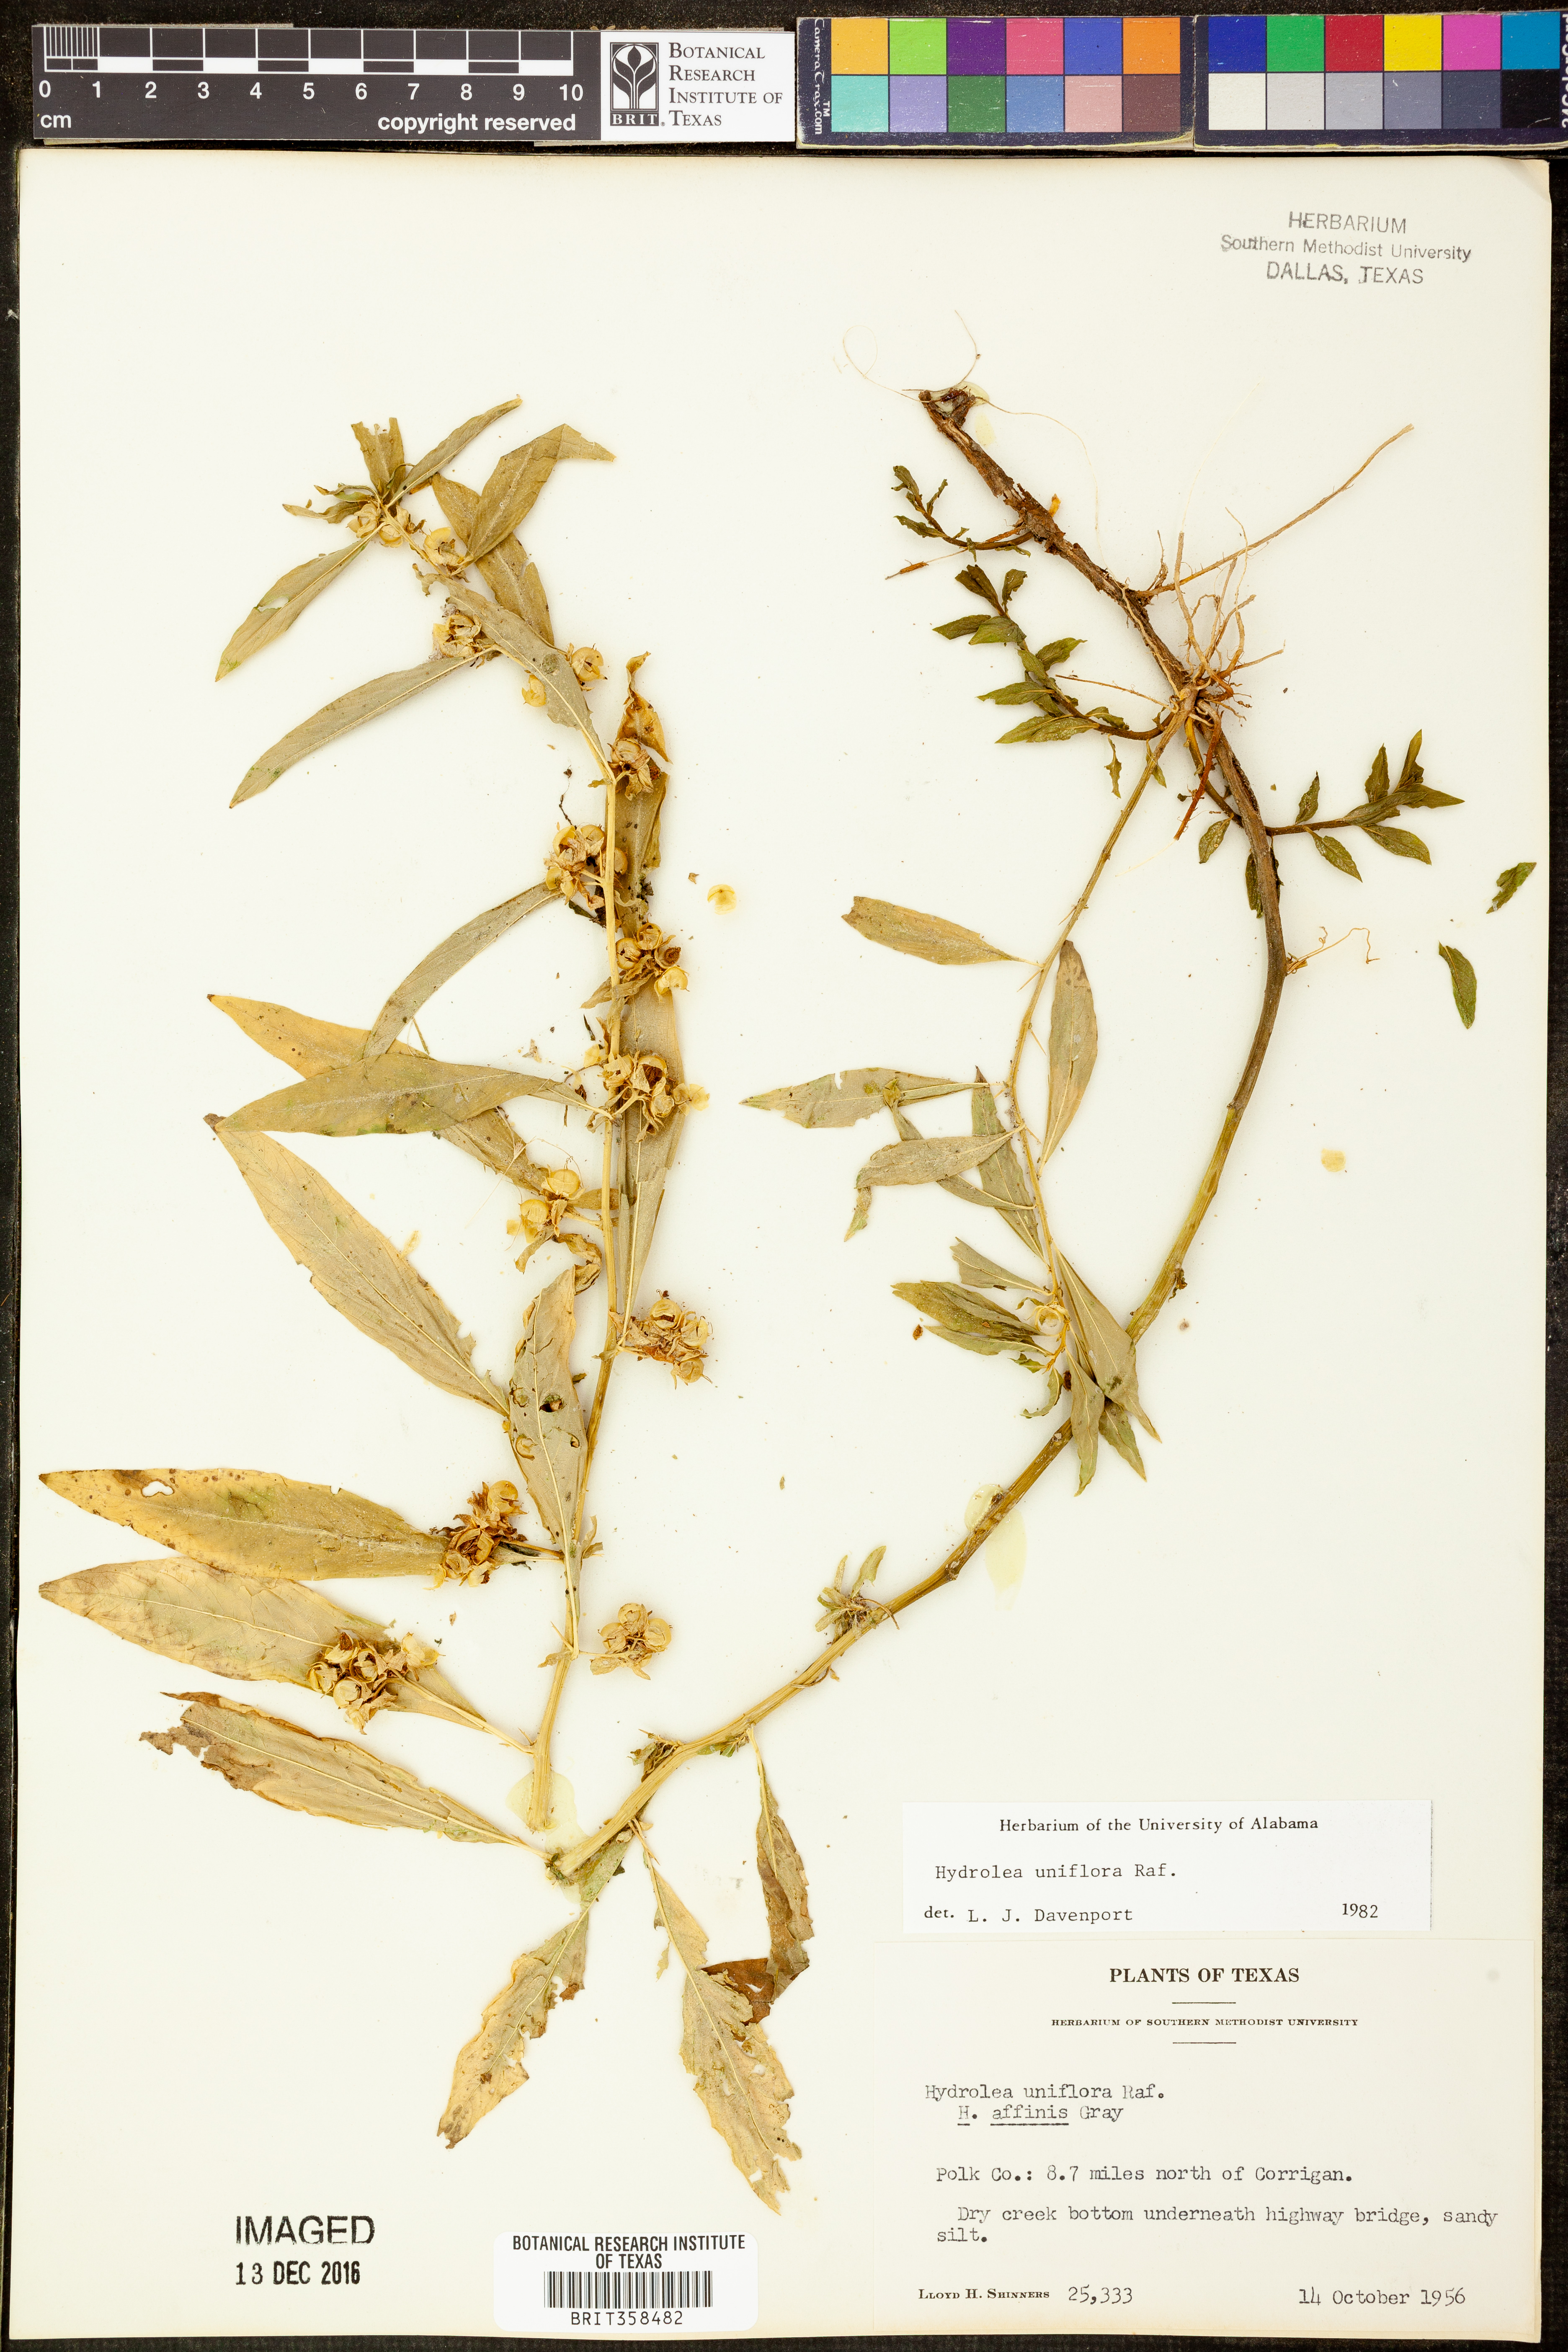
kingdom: Plantae
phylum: Tracheophyta
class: Magnoliopsida
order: Solanales
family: Hydroleaceae
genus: Hydrolea
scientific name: Hydrolea uniflora
